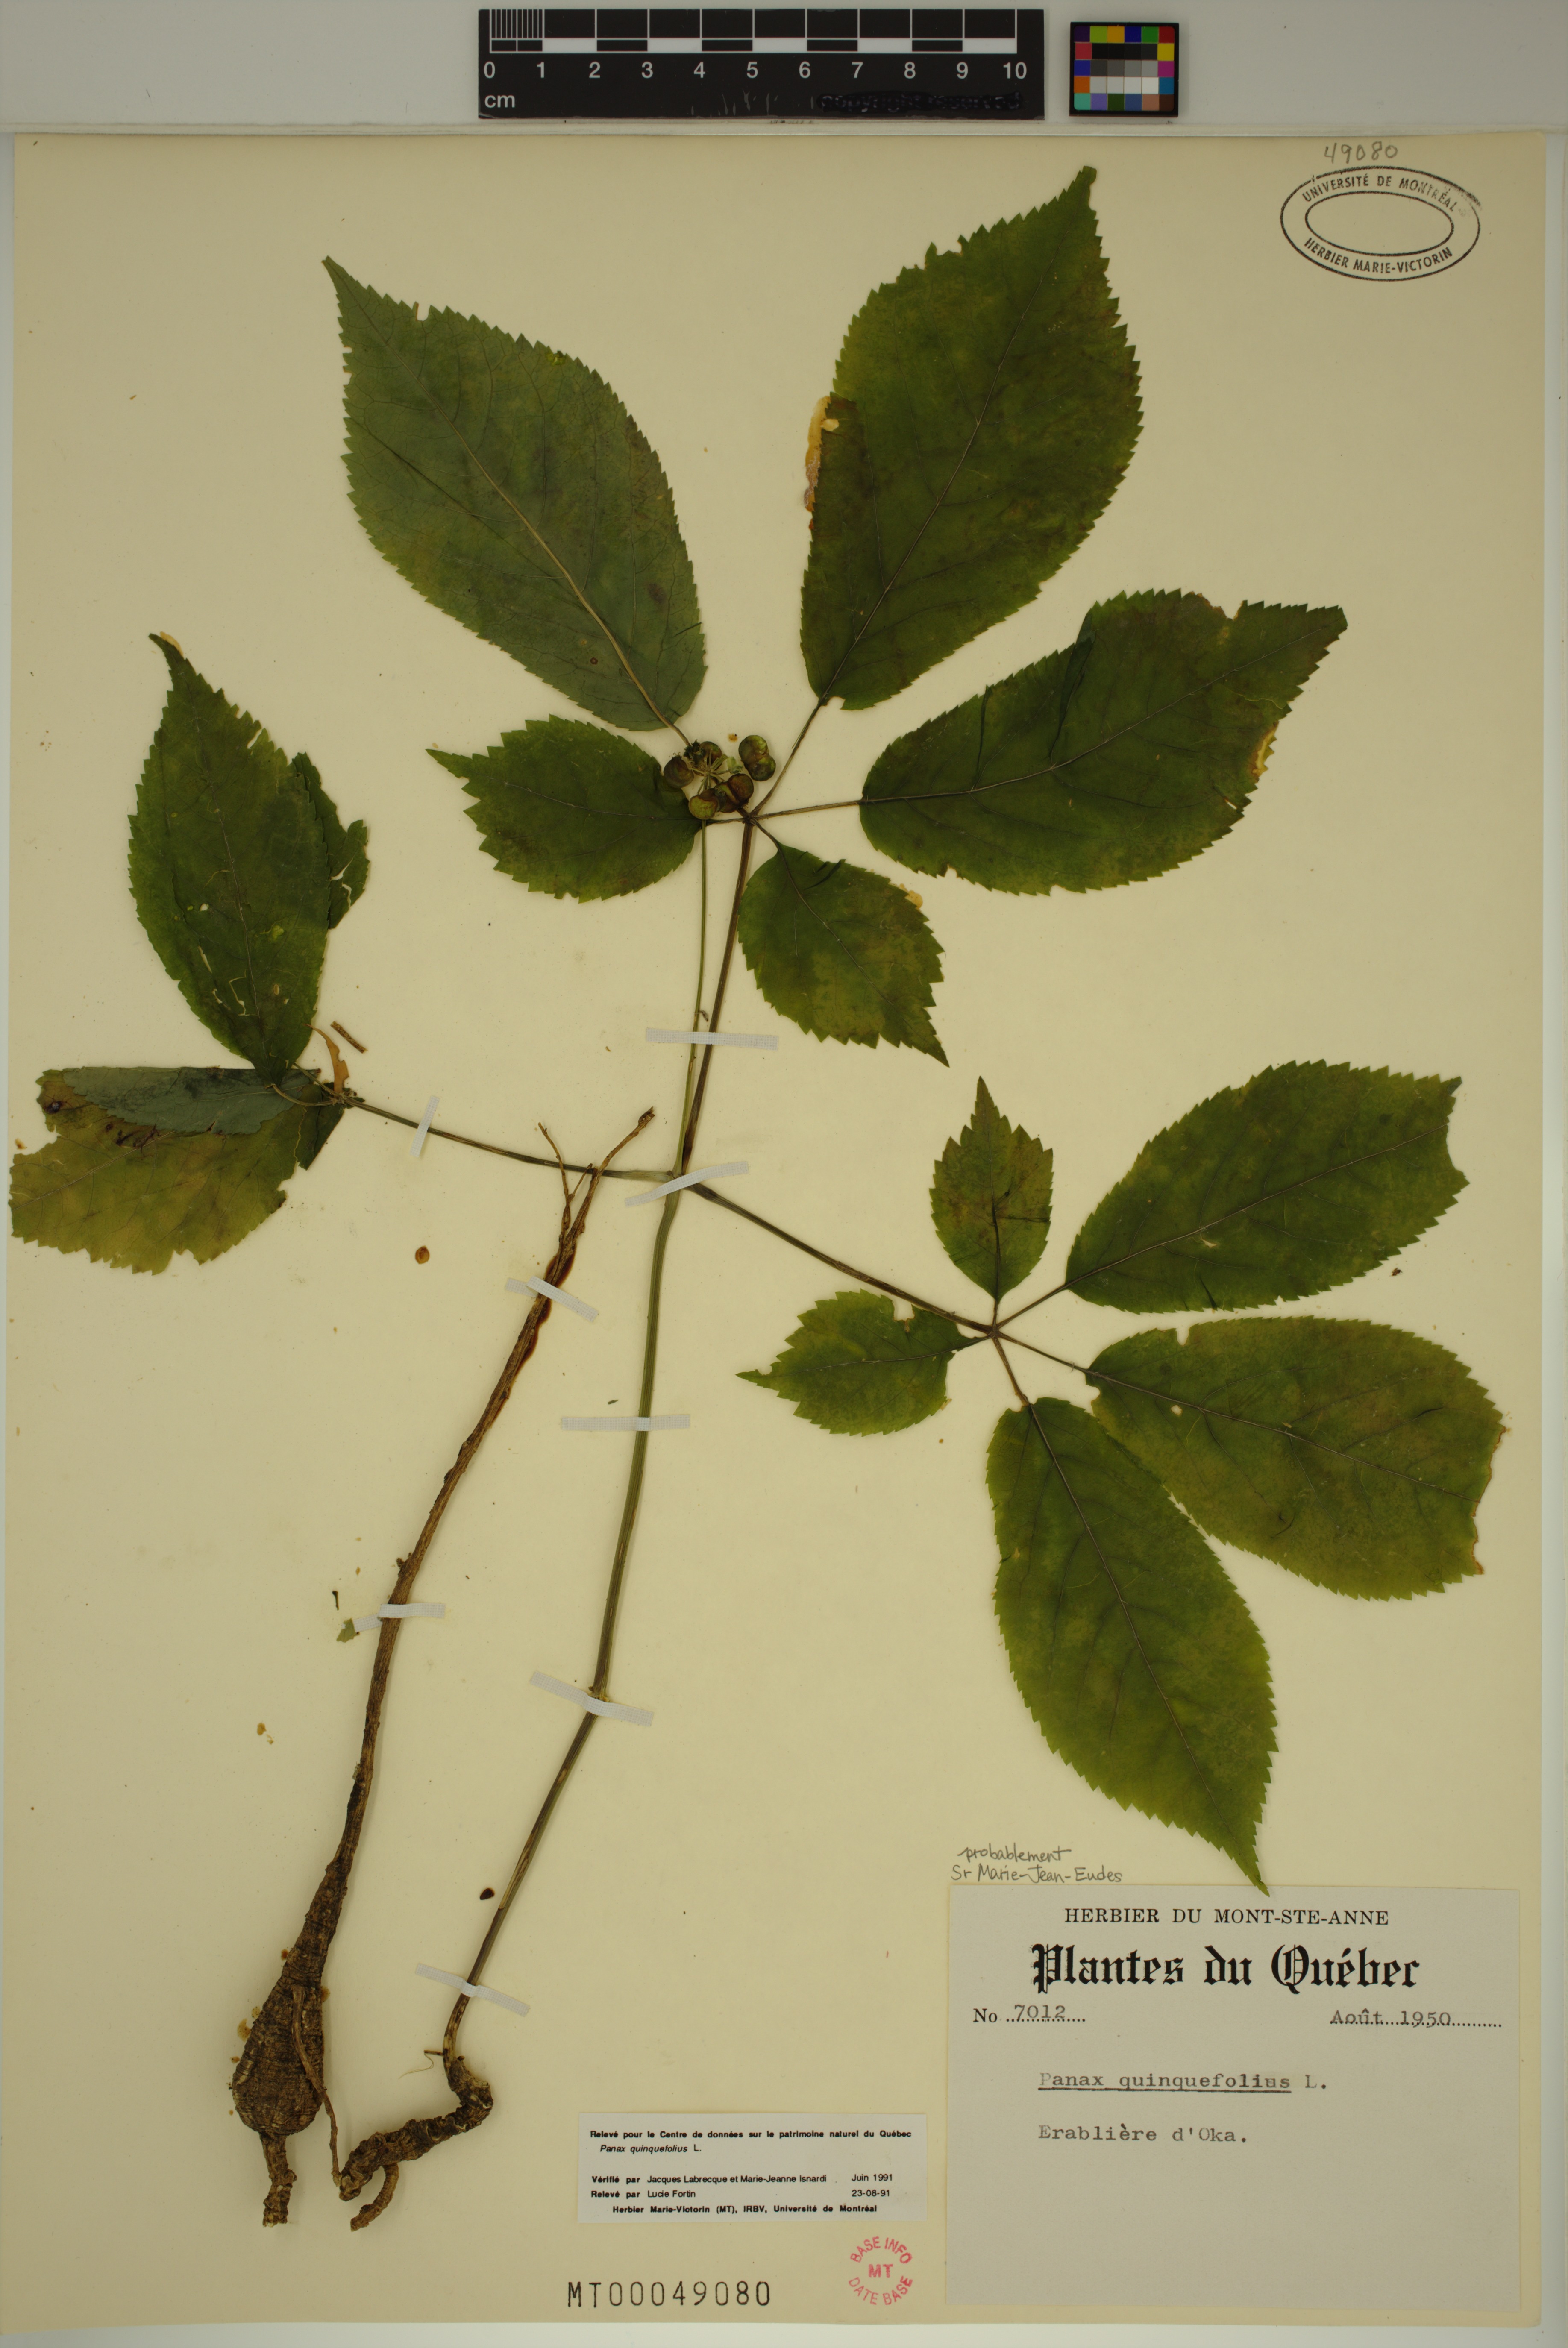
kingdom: Plantae
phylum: Tracheophyta
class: Magnoliopsida
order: Apiales
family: Araliaceae
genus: Panax
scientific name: Panax quinquefolius
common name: American ginseng
